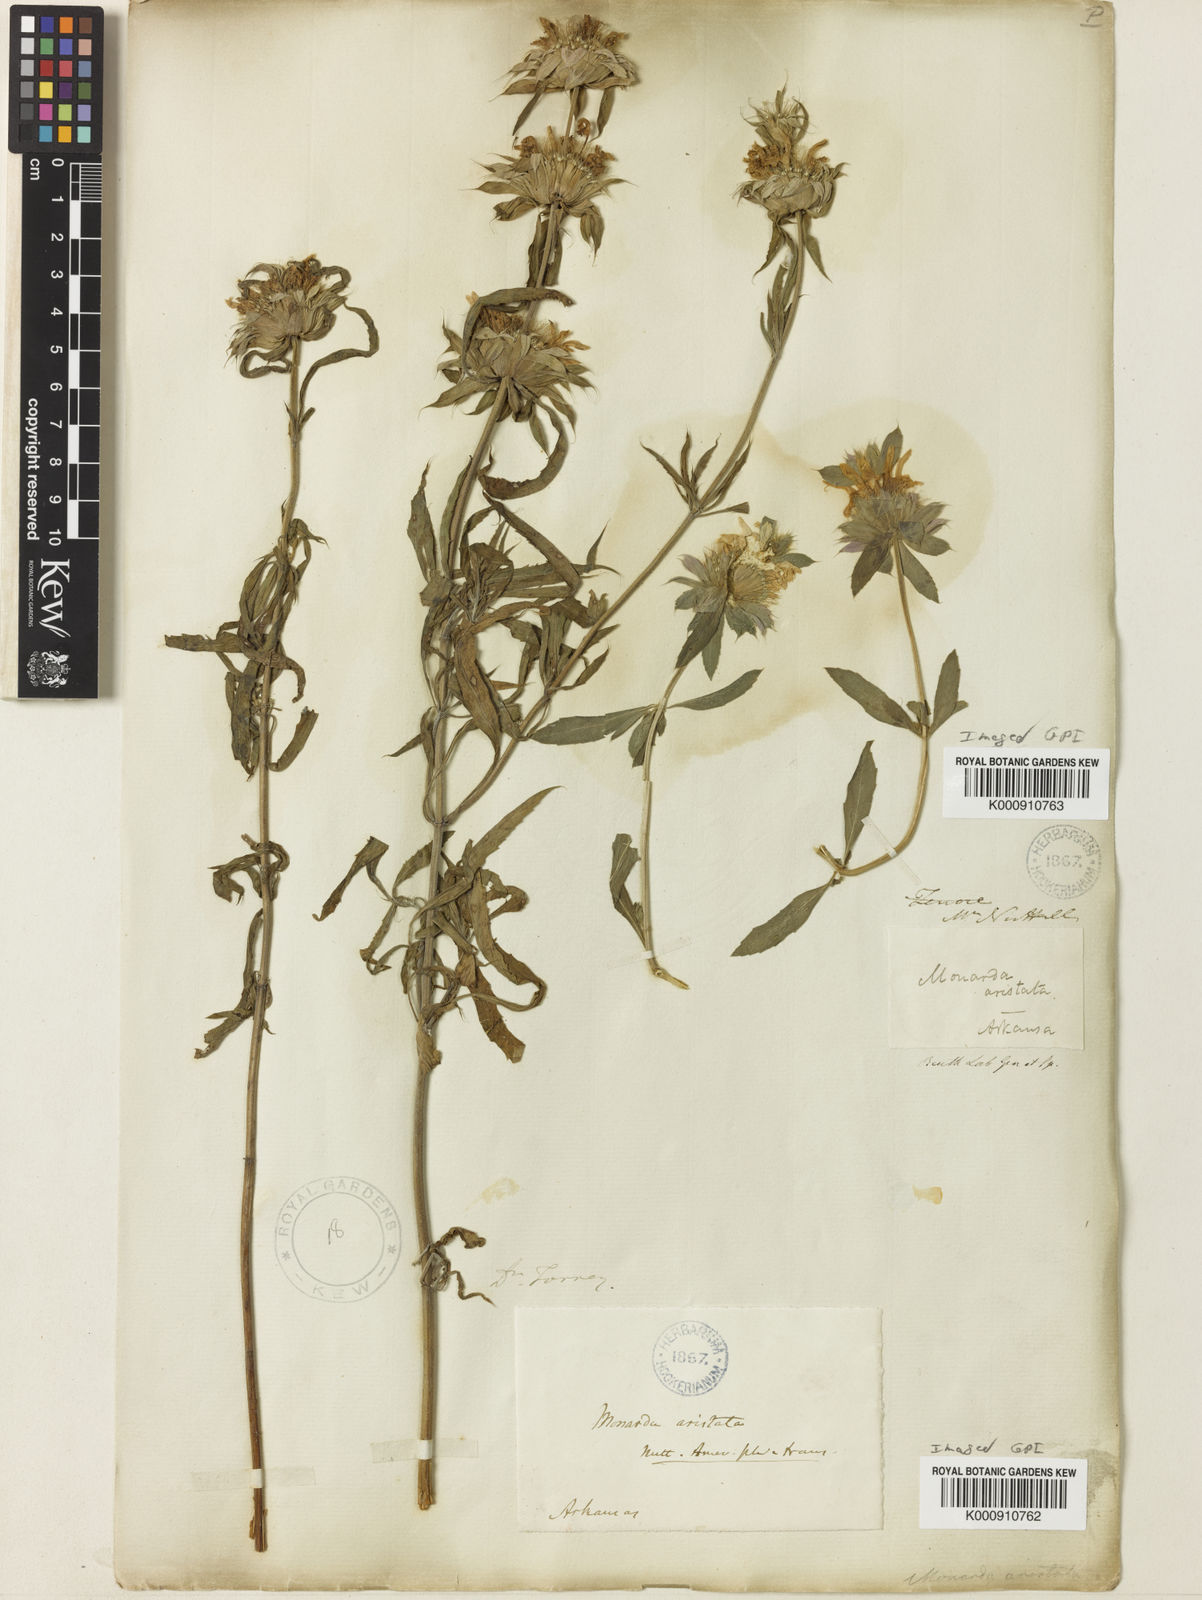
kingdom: Plantae
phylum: Tracheophyta
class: Magnoliopsida
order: Lamiales
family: Lamiaceae
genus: Monarda
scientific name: Monarda citriodora
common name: Lemon beebalm
